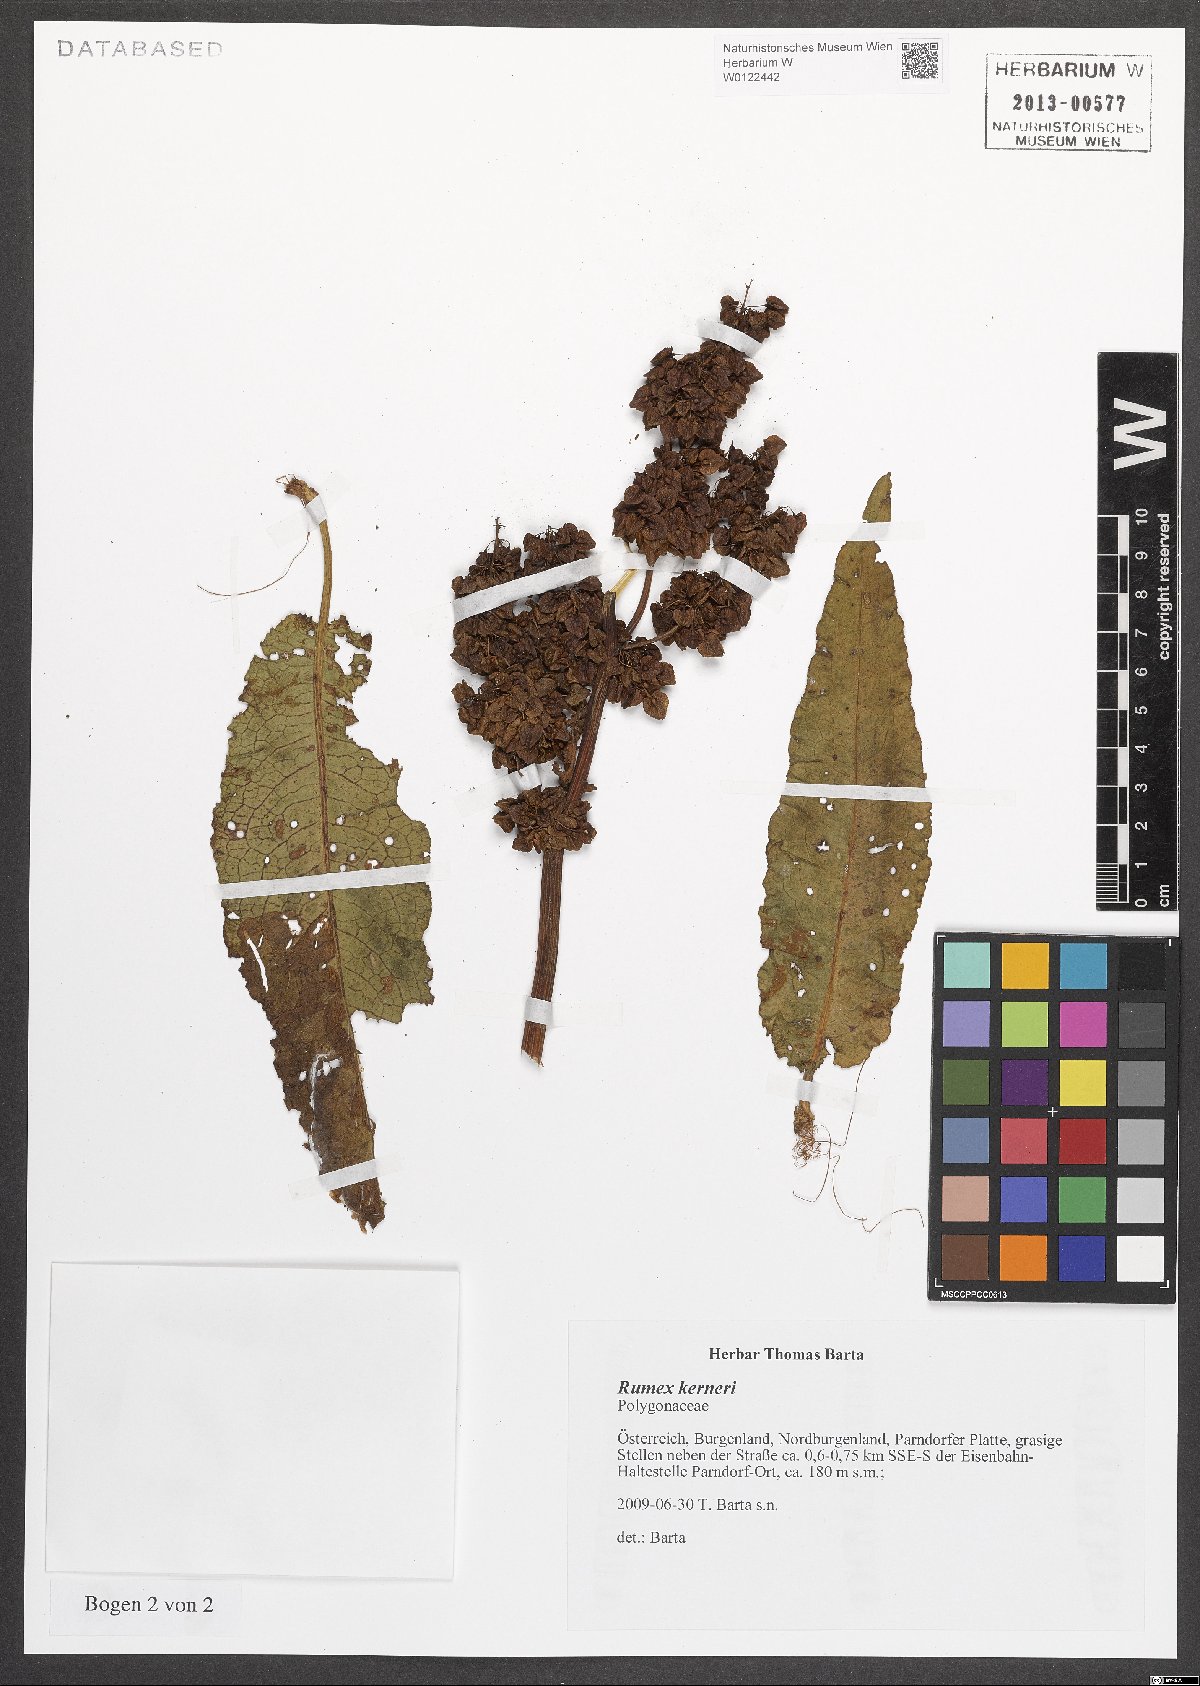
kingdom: Plantae
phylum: Tracheophyta
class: Magnoliopsida
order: Caryophyllales
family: Polygonaceae
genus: Rumex
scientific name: Rumex kerneri
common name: Kerner's dock
